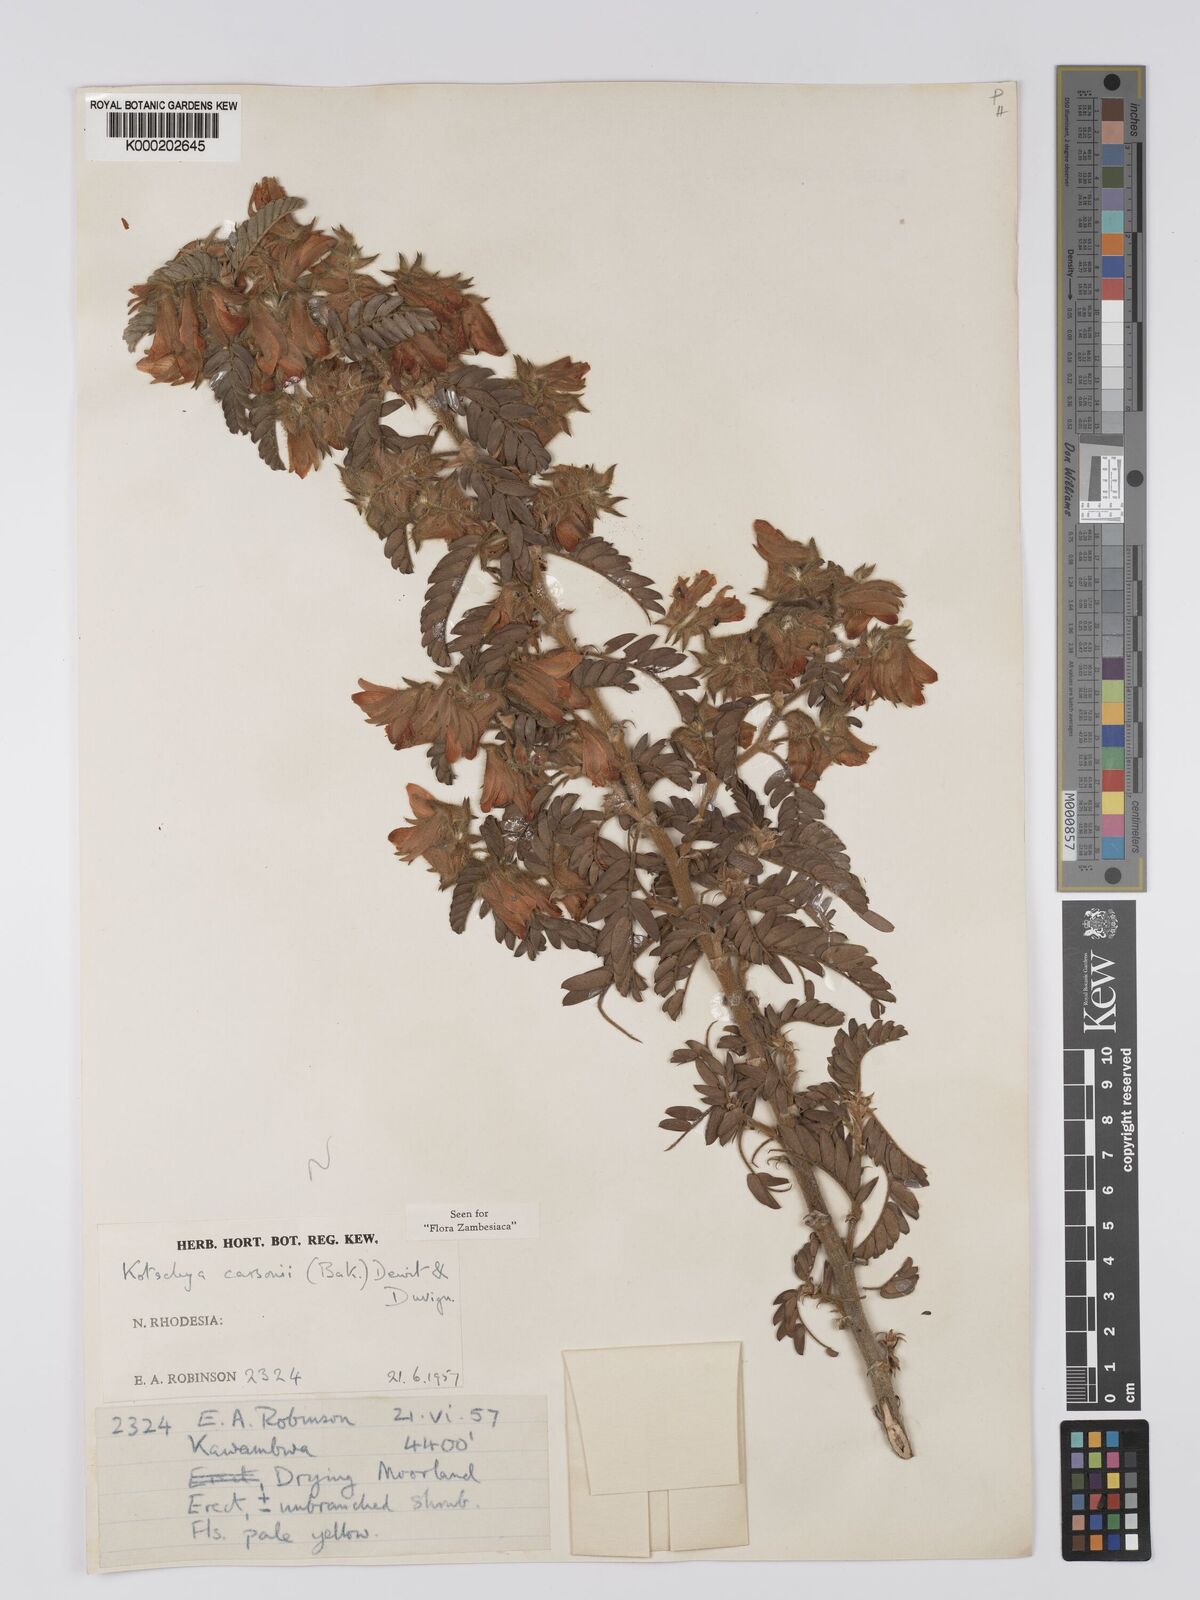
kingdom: Plantae
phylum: Tracheophyta
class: Magnoliopsida
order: Fabales
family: Fabaceae
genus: Kotschya
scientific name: Kotschya carsonii
